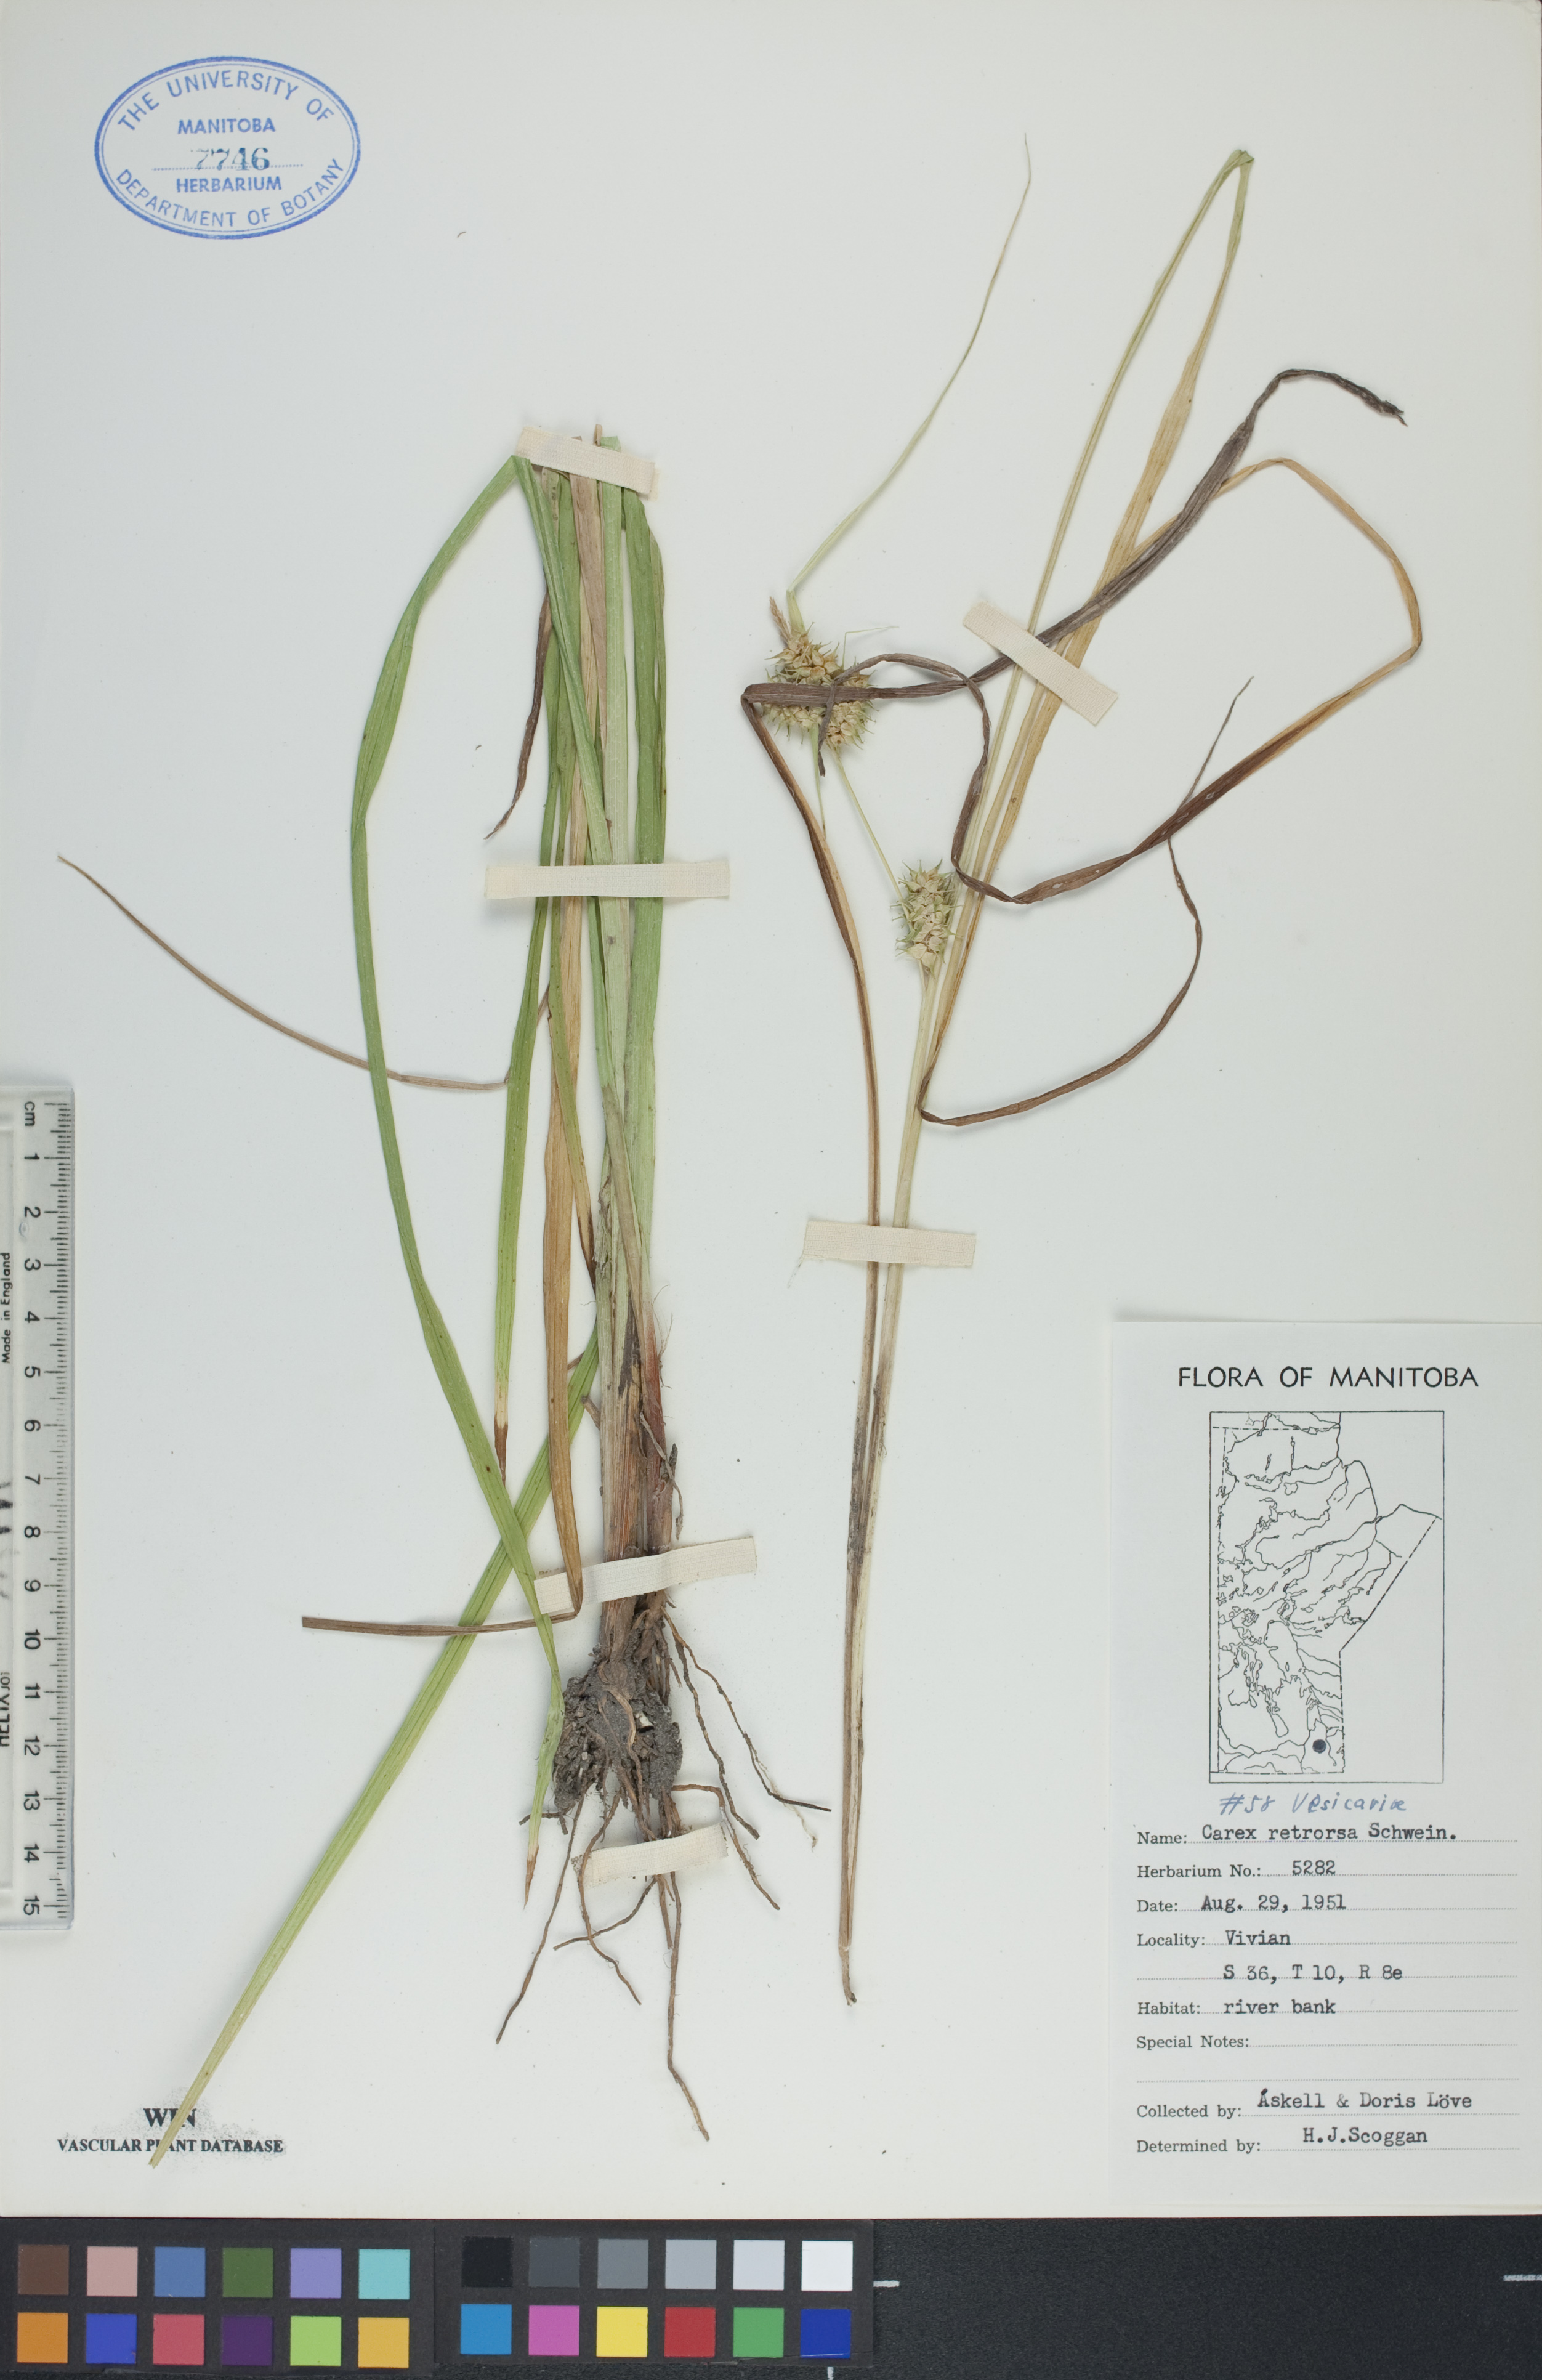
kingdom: Plantae
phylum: Tracheophyta
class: Liliopsida
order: Poales
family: Cyperaceae
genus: Carex
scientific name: Carex retrorsa
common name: Knot-sheath sedge
